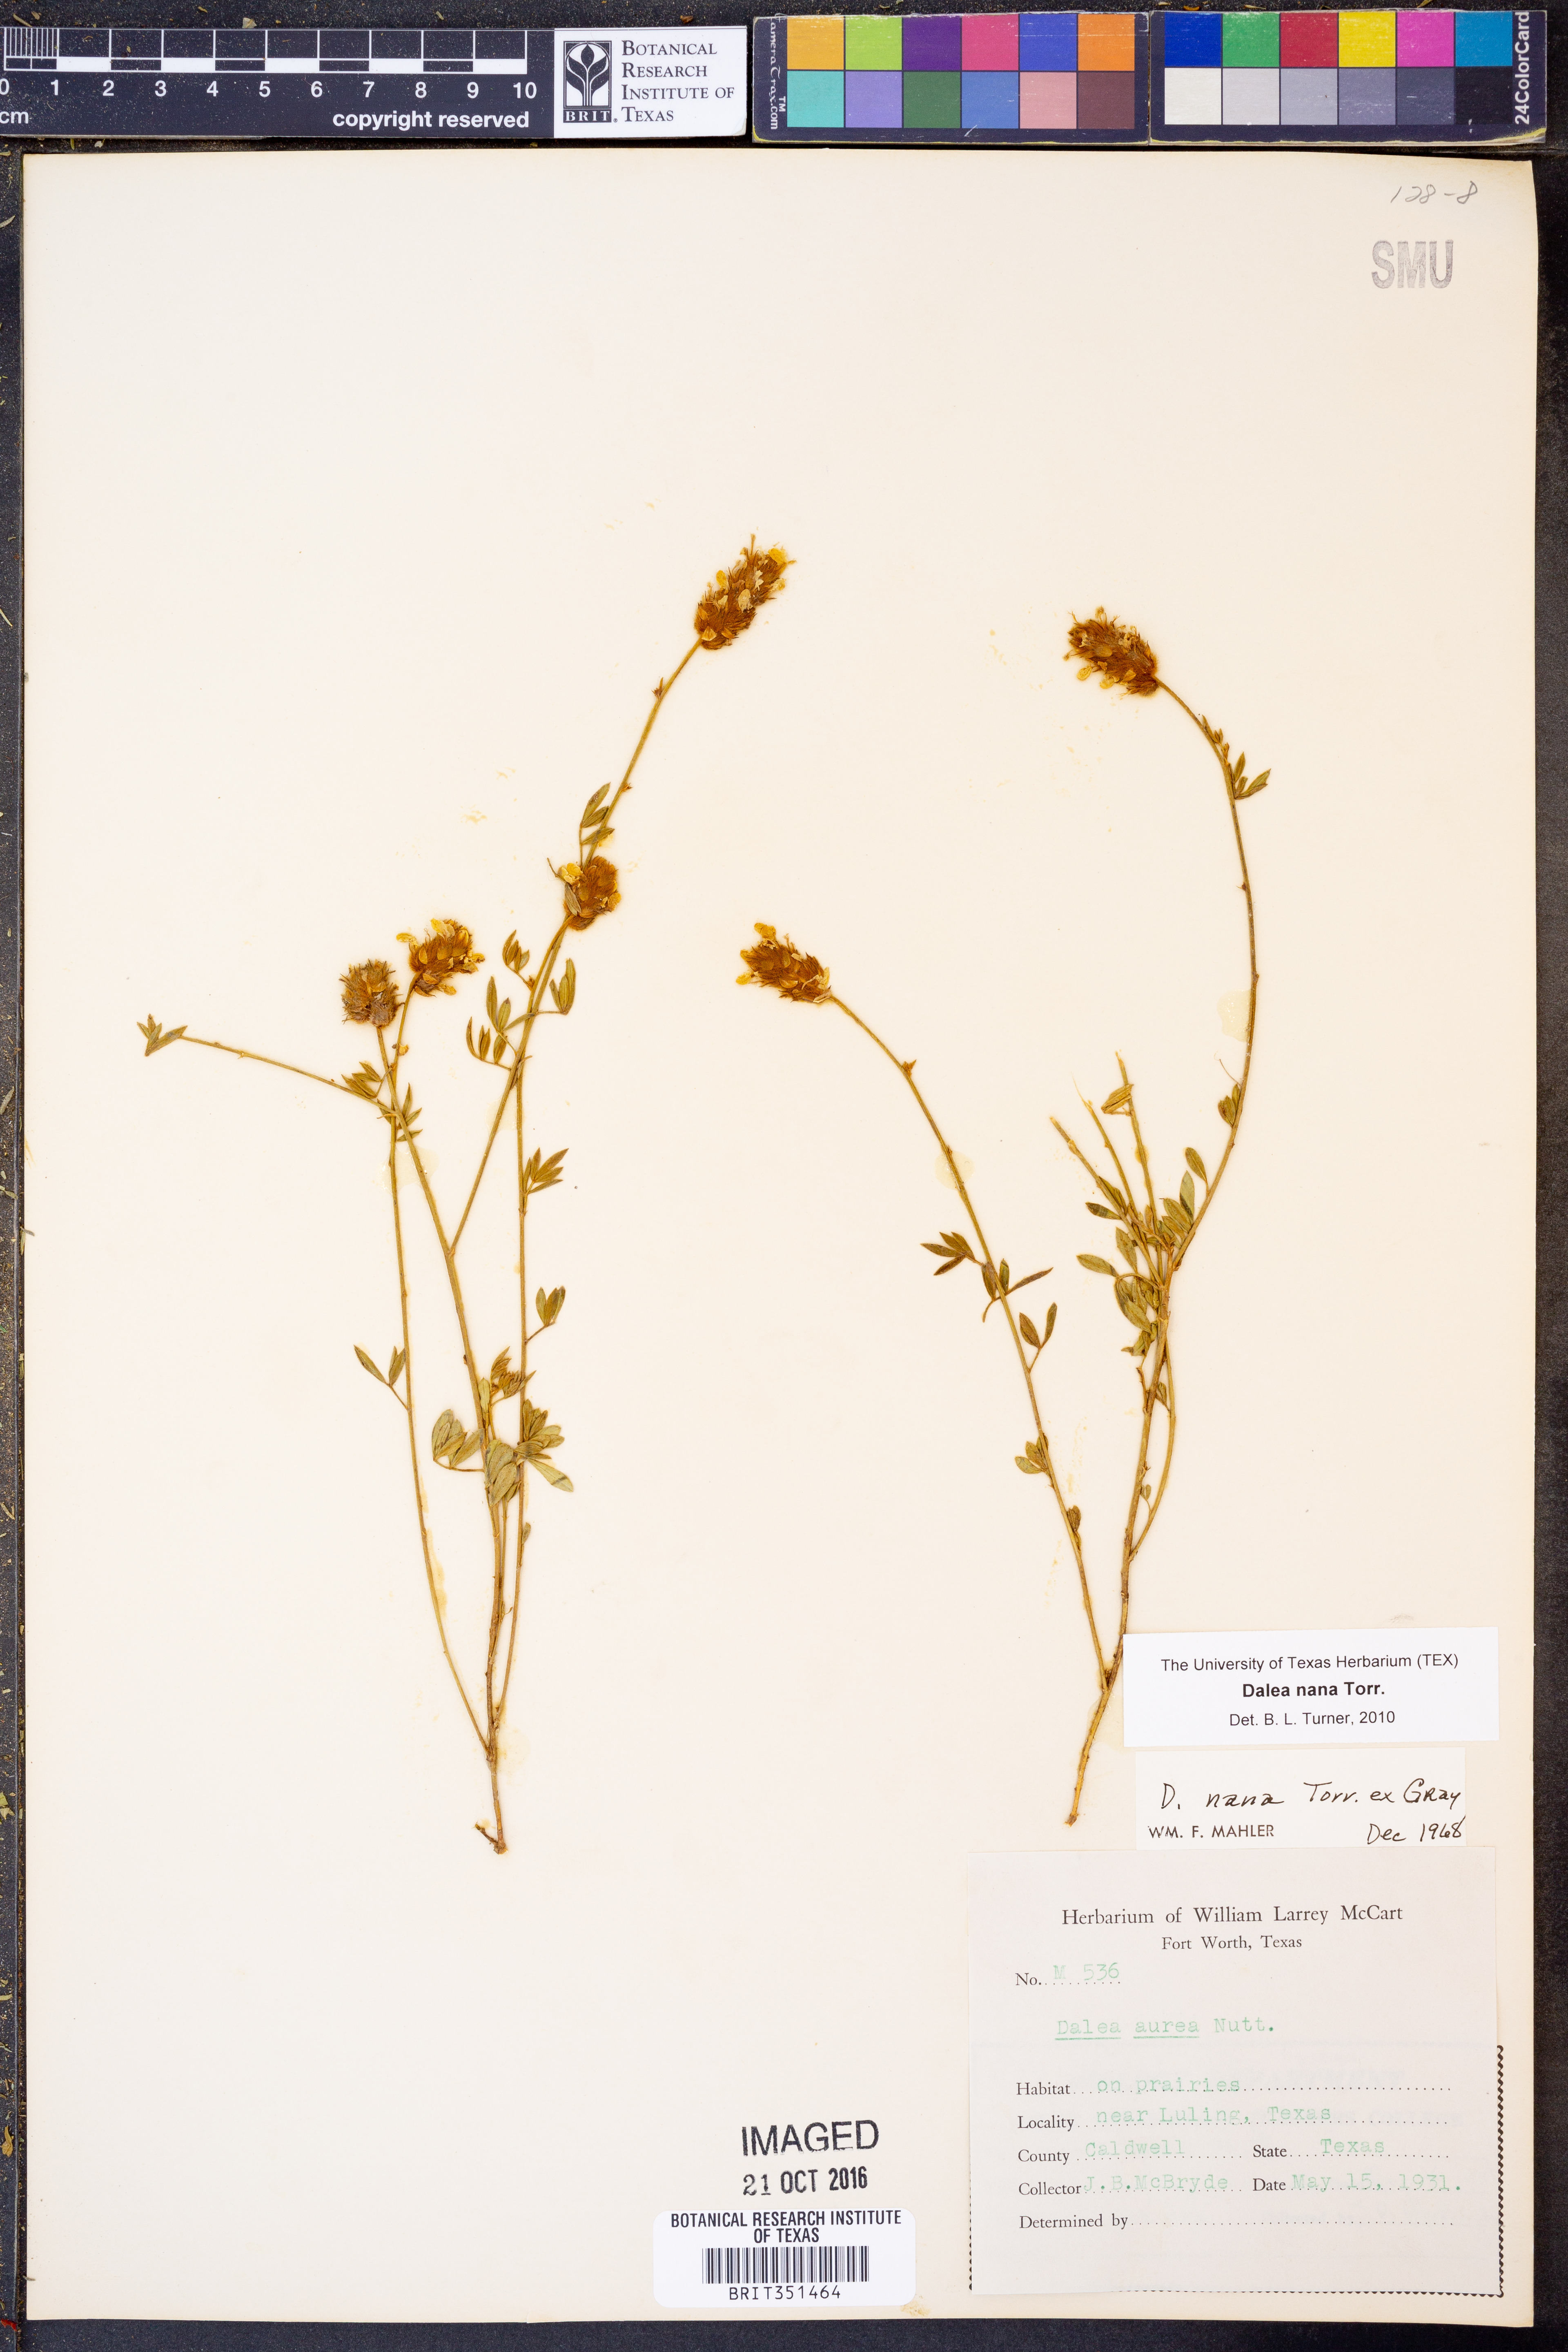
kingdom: Plantae
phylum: Tracheophyta
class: Magnoliopsida
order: Fabales
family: Fabaceae
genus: Dalea
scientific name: Dalea nana
